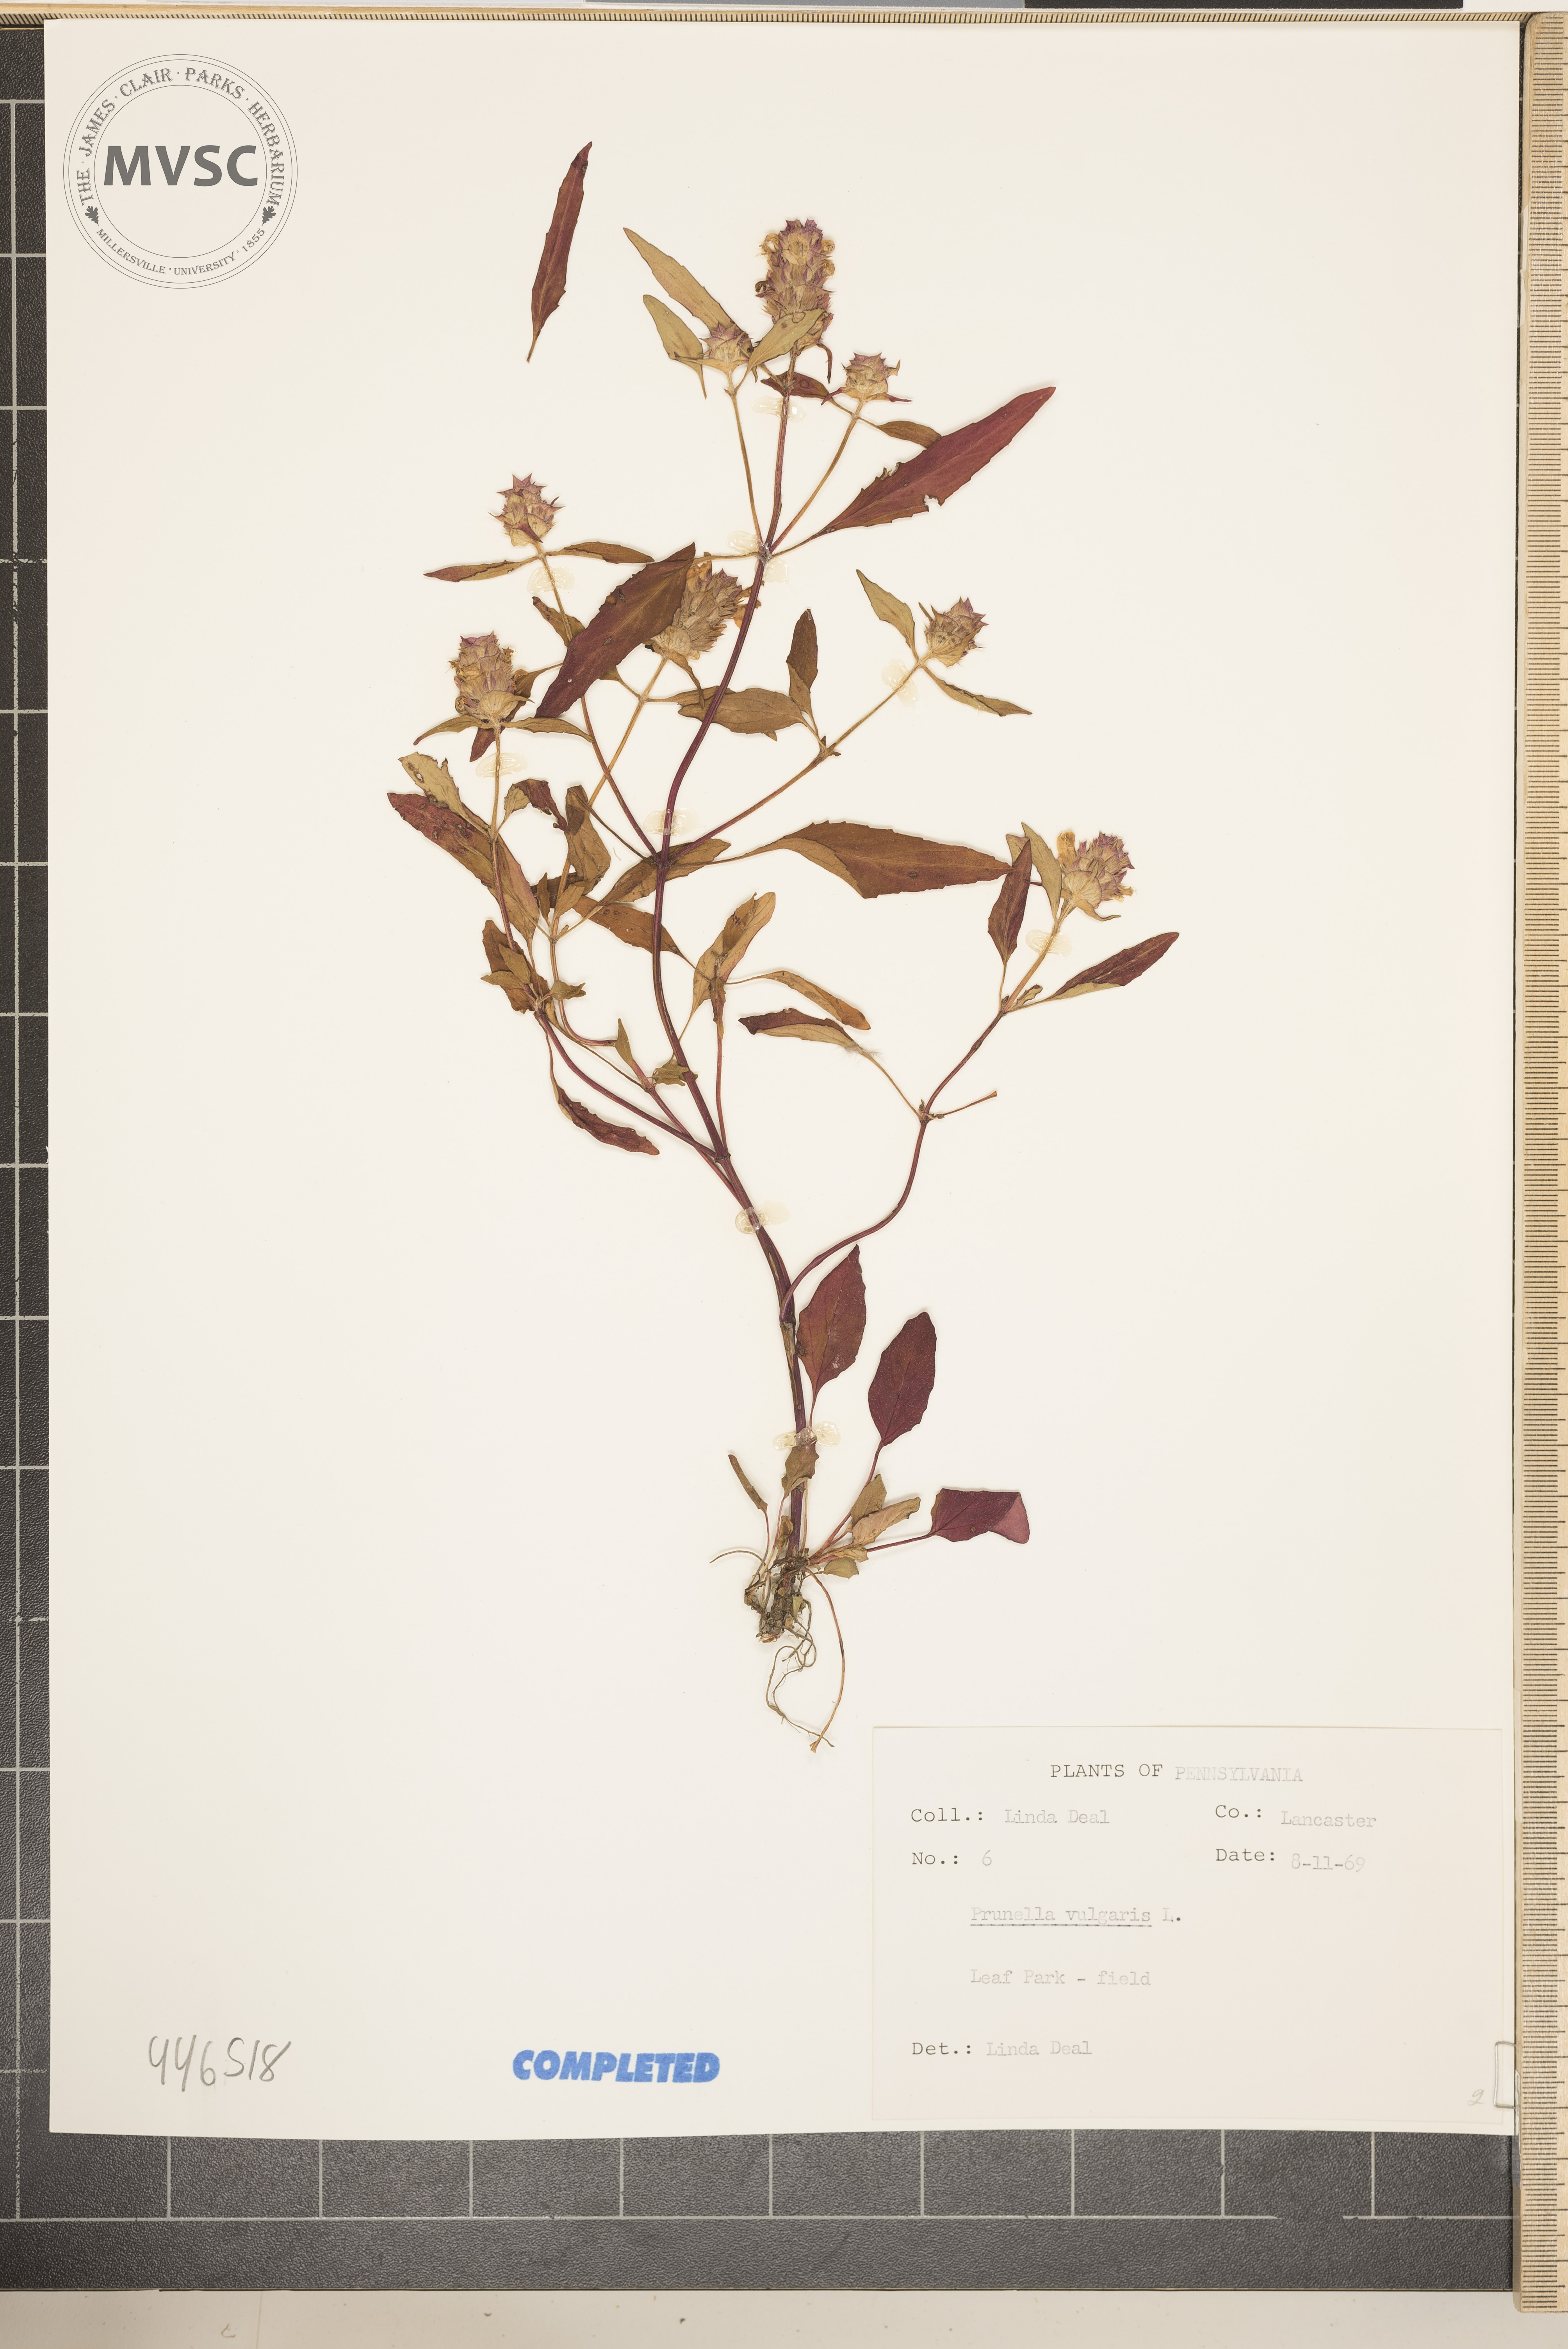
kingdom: Plantae
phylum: Tracheophyta
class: Magnoliopsida
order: Lamiales
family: Lamiaceae
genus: Prunella
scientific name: Prunella vulgaris
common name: Heal-all
